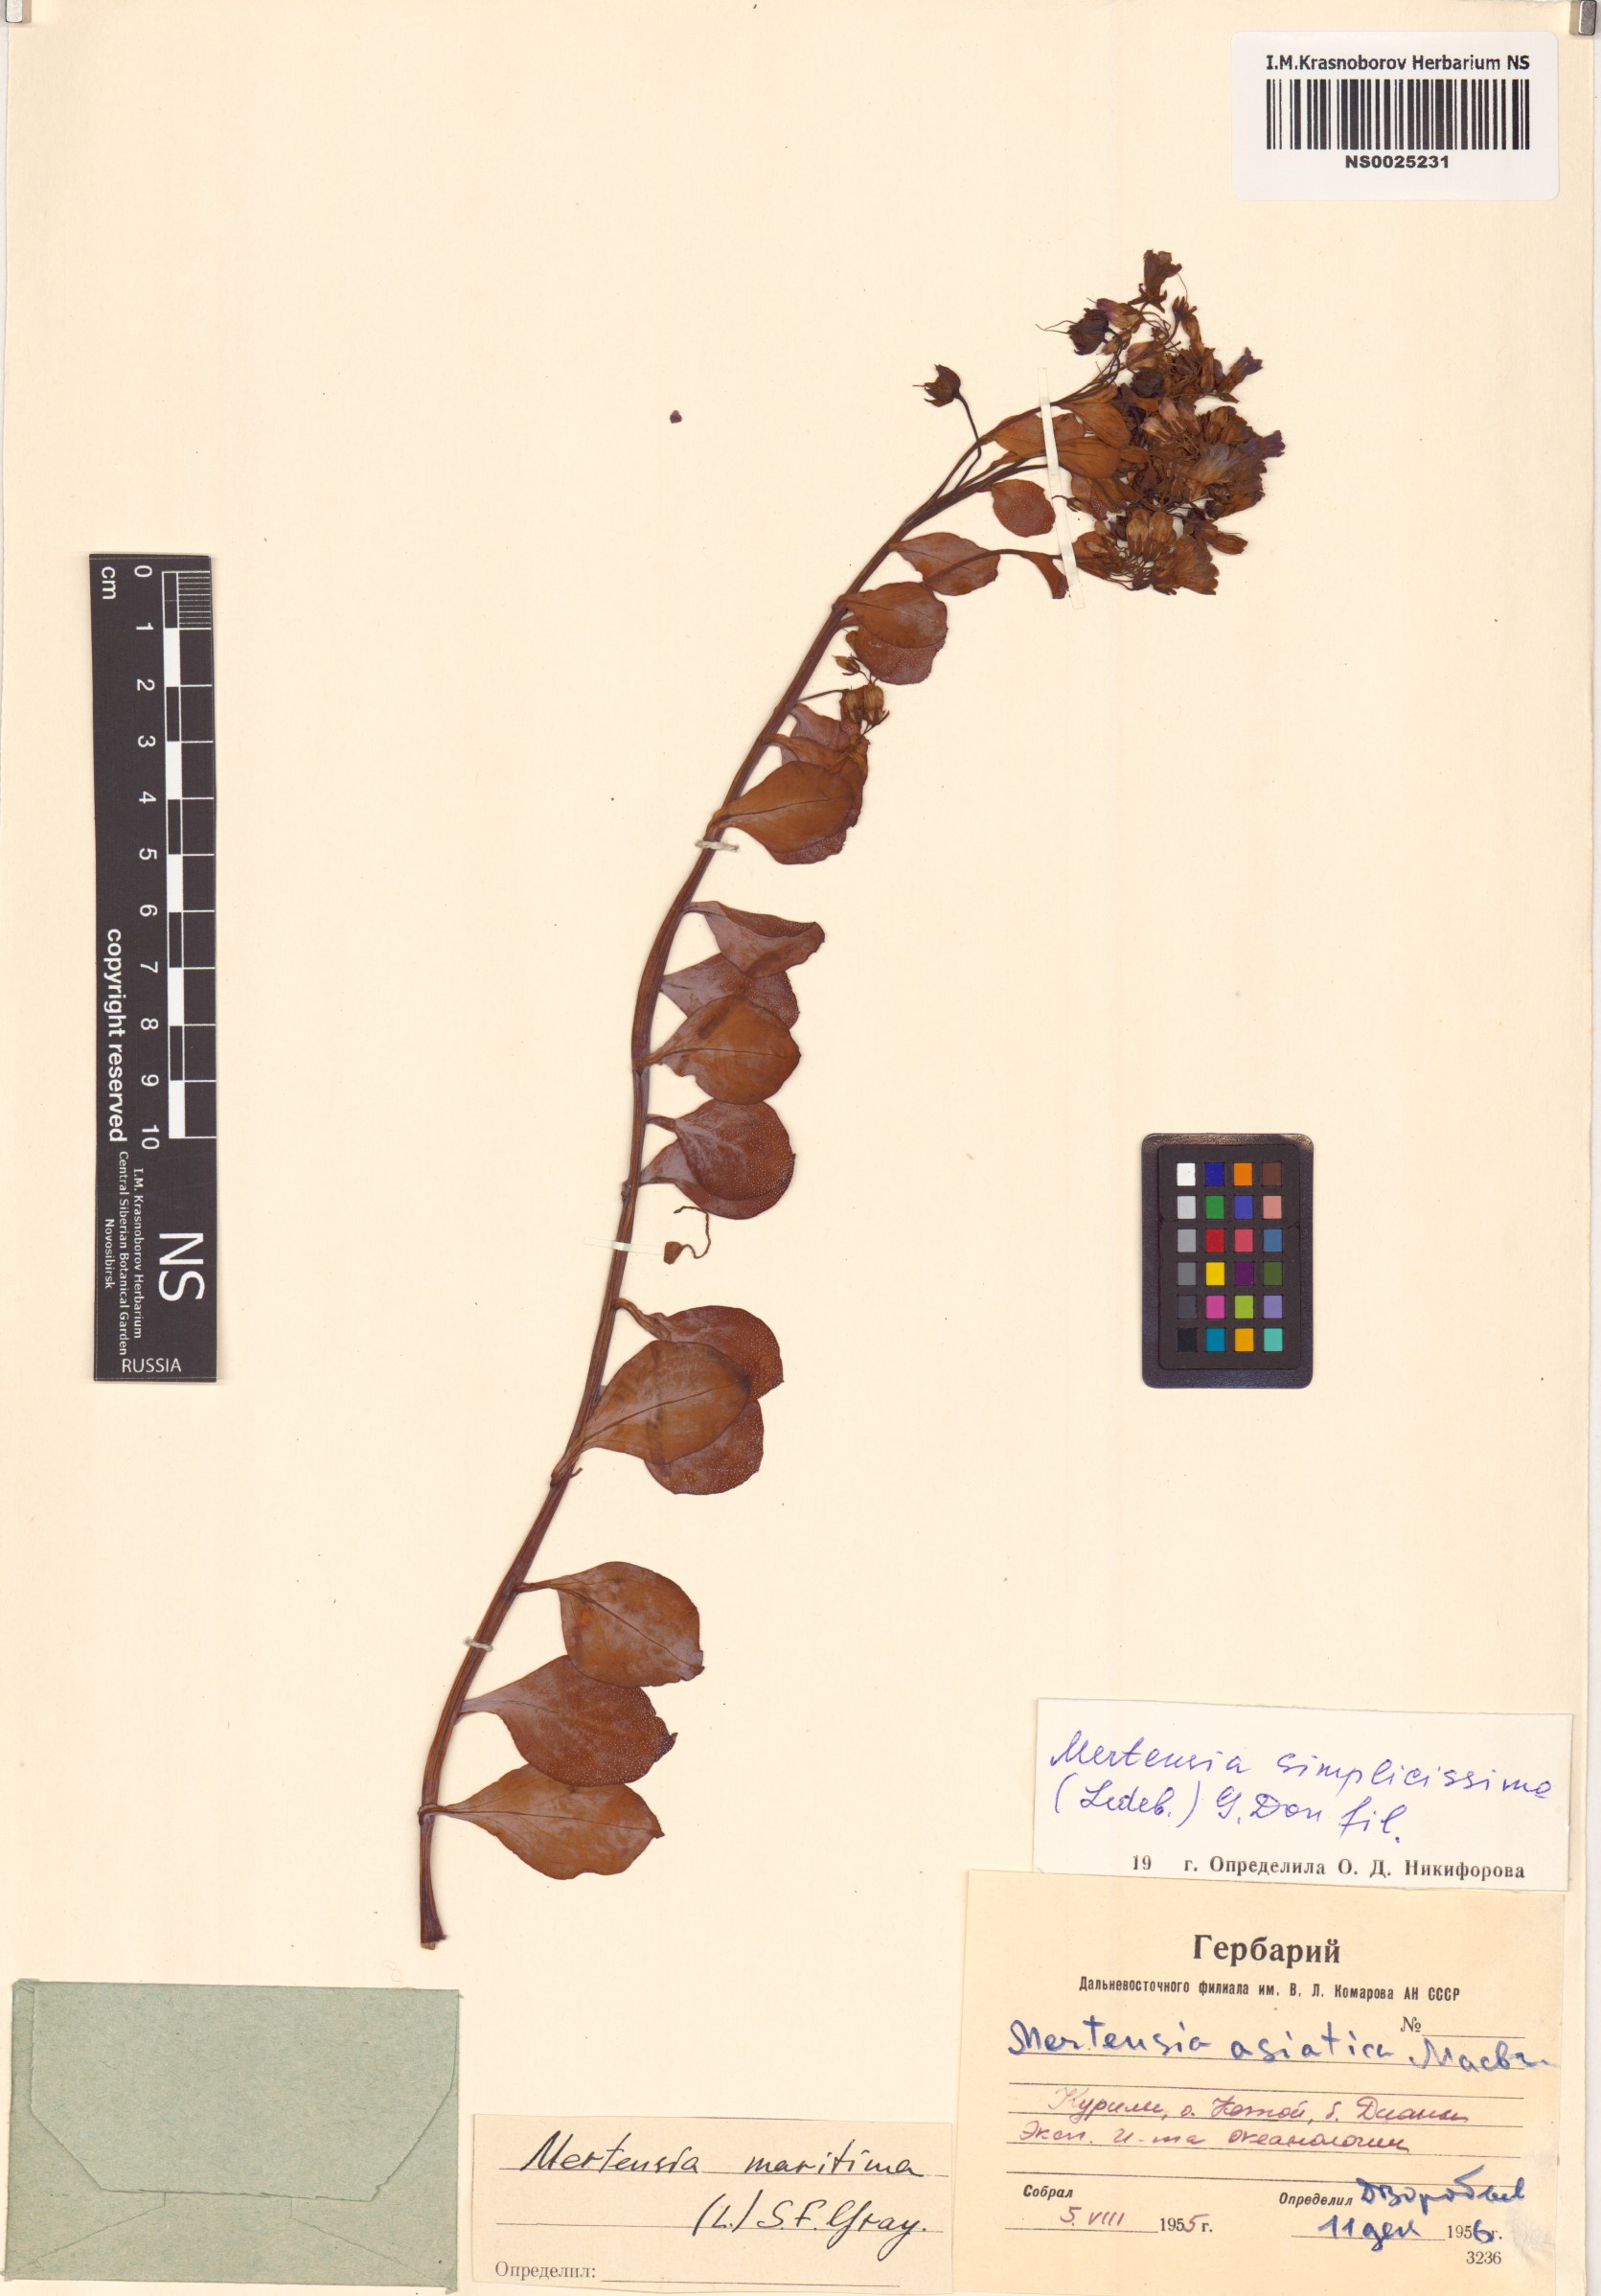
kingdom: Plantae
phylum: Tracheophyta
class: Magnoliopsida
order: Boraginales
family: Boraginaceae
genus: Mertensia
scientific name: Mertensia simplicissima
